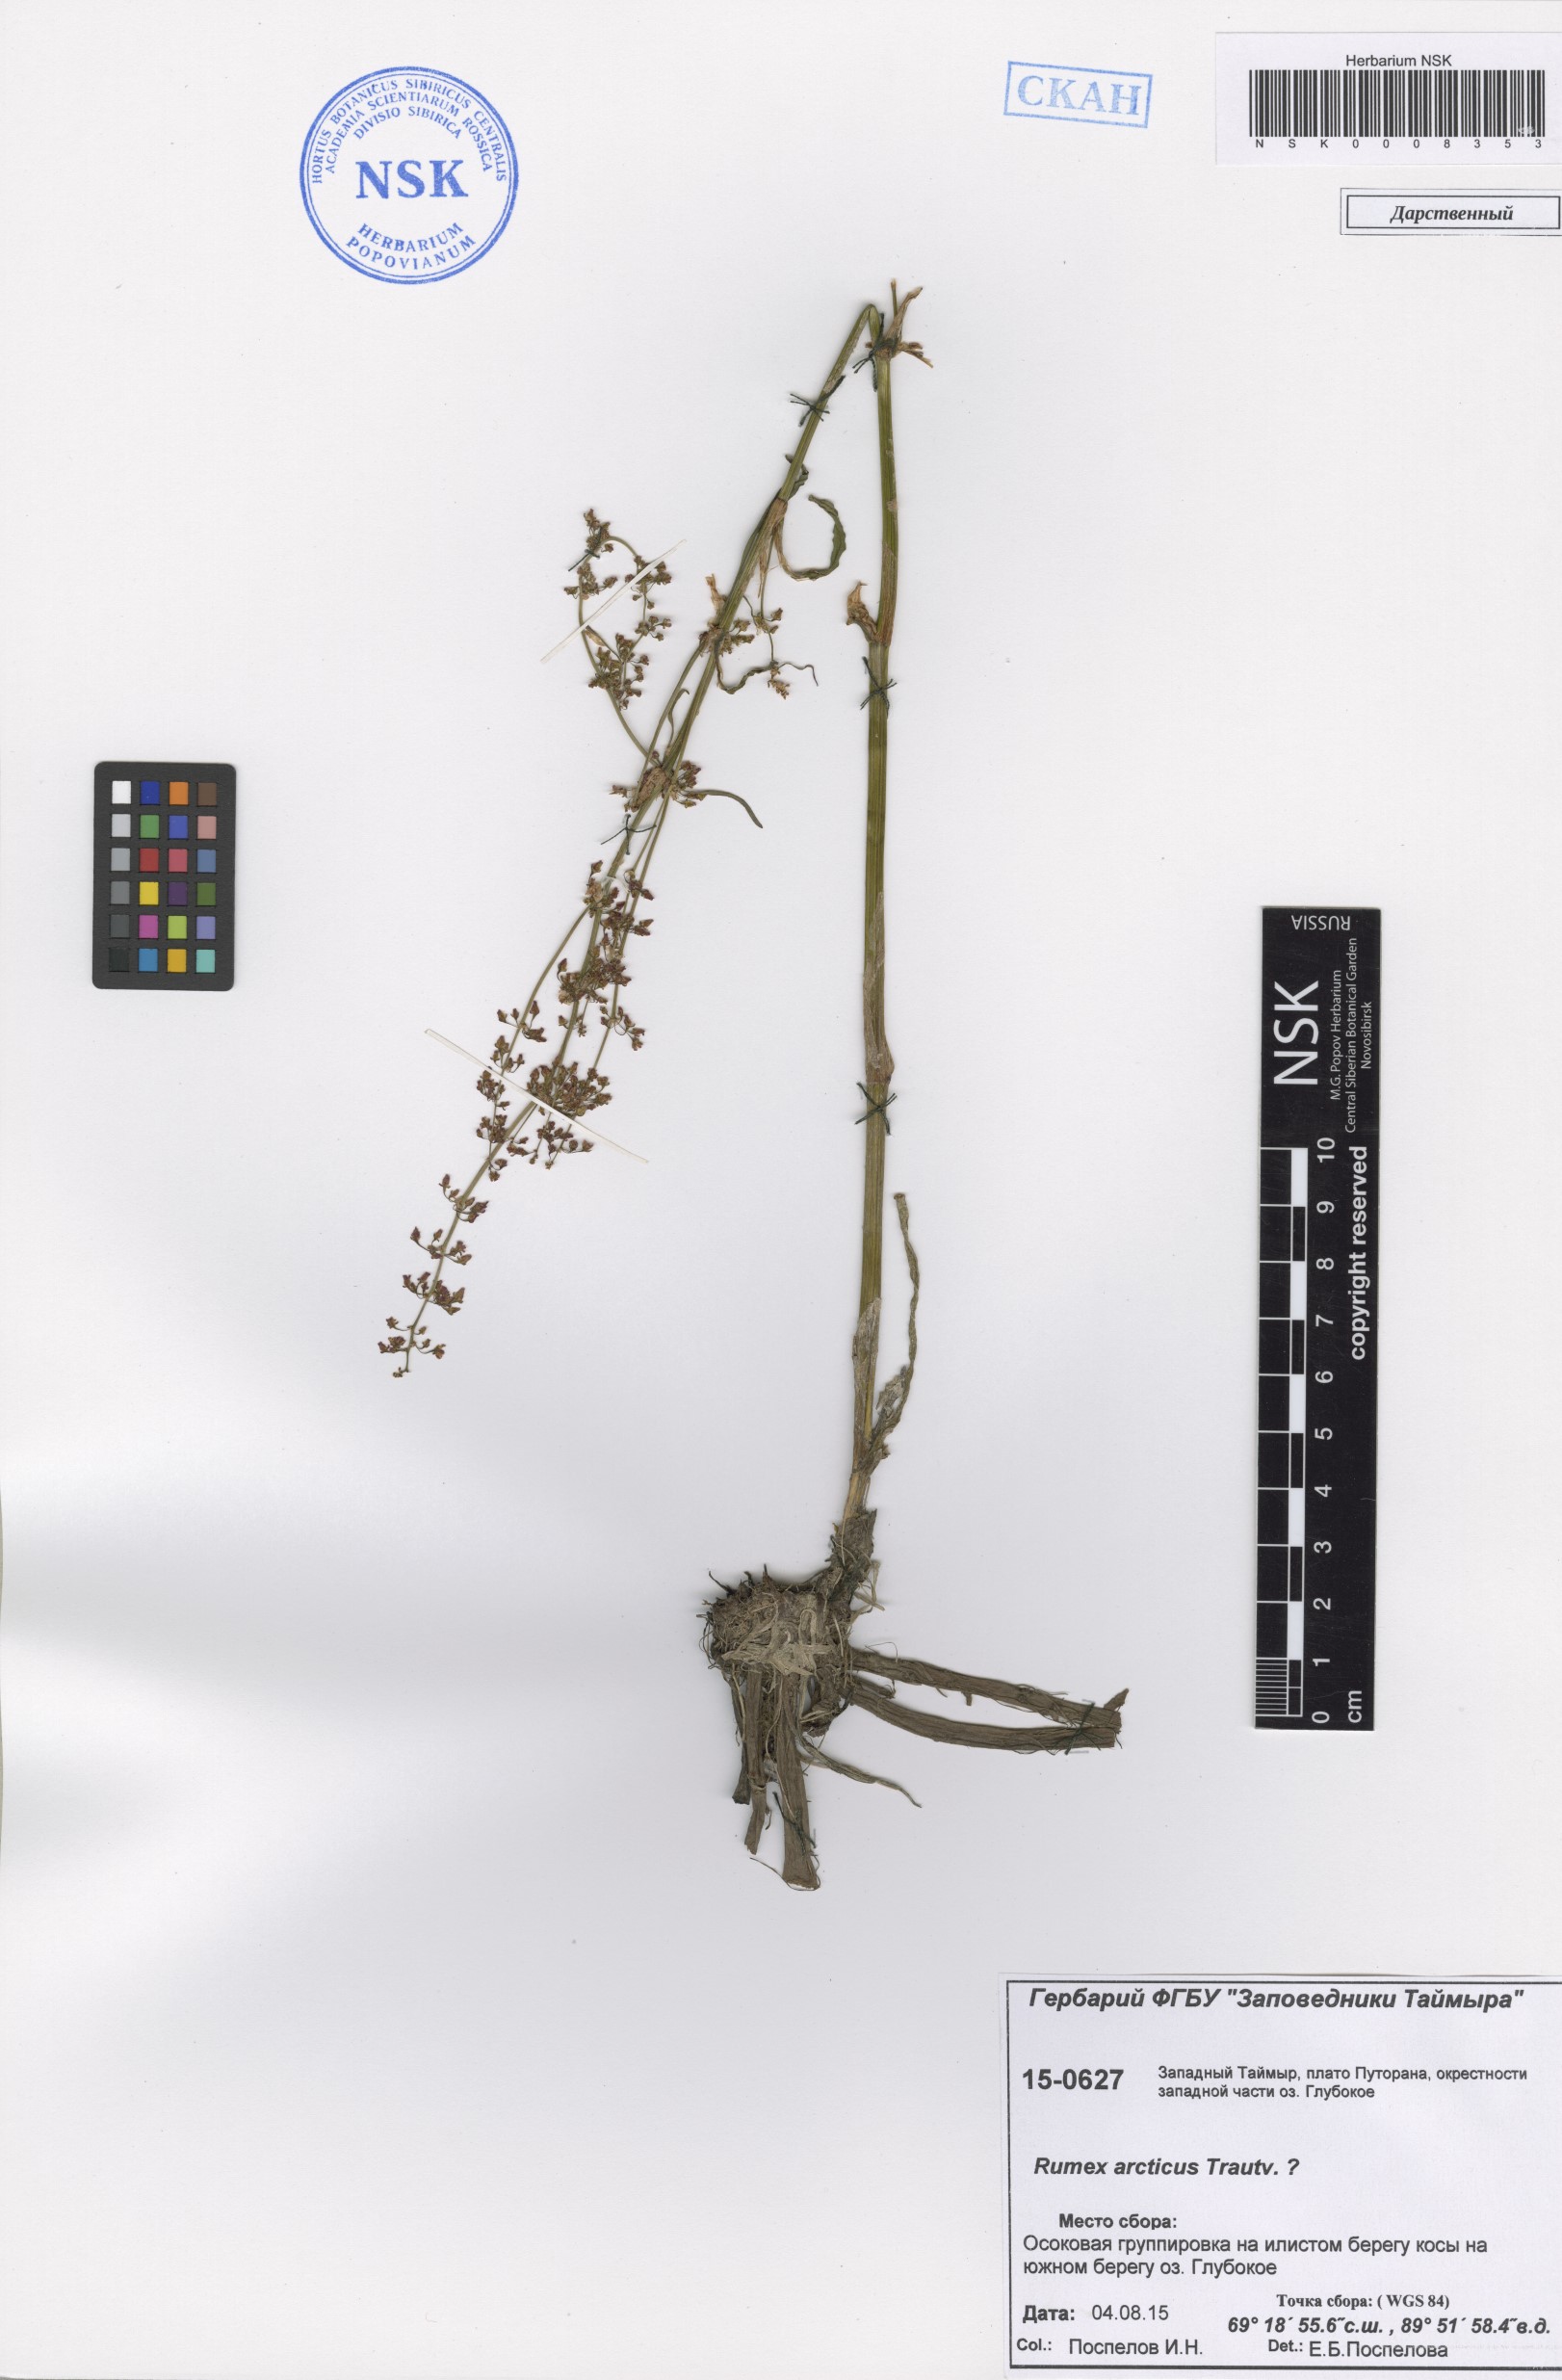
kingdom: Plantae
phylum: Tracheophyta
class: Magnoliopsida
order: Caryophyllales
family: Polygonaceae
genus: Rumex
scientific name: Rumex arcticus
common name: Arctic dock
